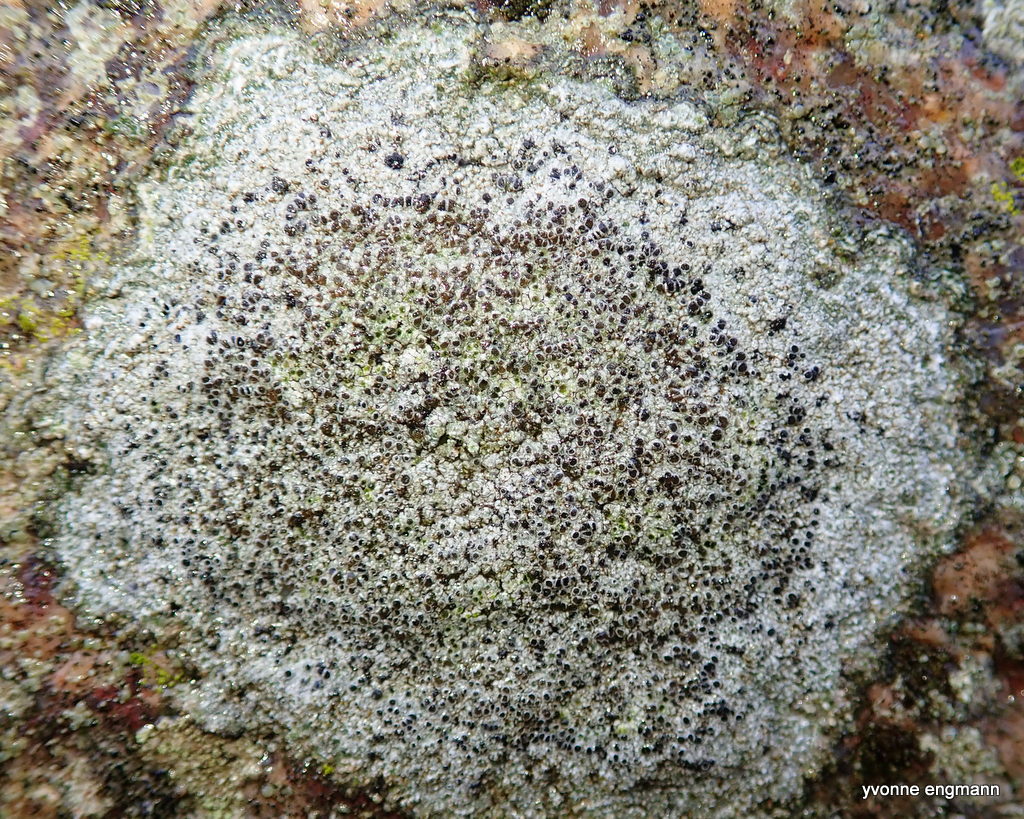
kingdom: Fungi
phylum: Ascomycota
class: Lecanoromycetes
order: Lecanorales
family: Lecanoraceae
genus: Lecanora
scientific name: Lecanora campestris
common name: mur-kantskivelav
